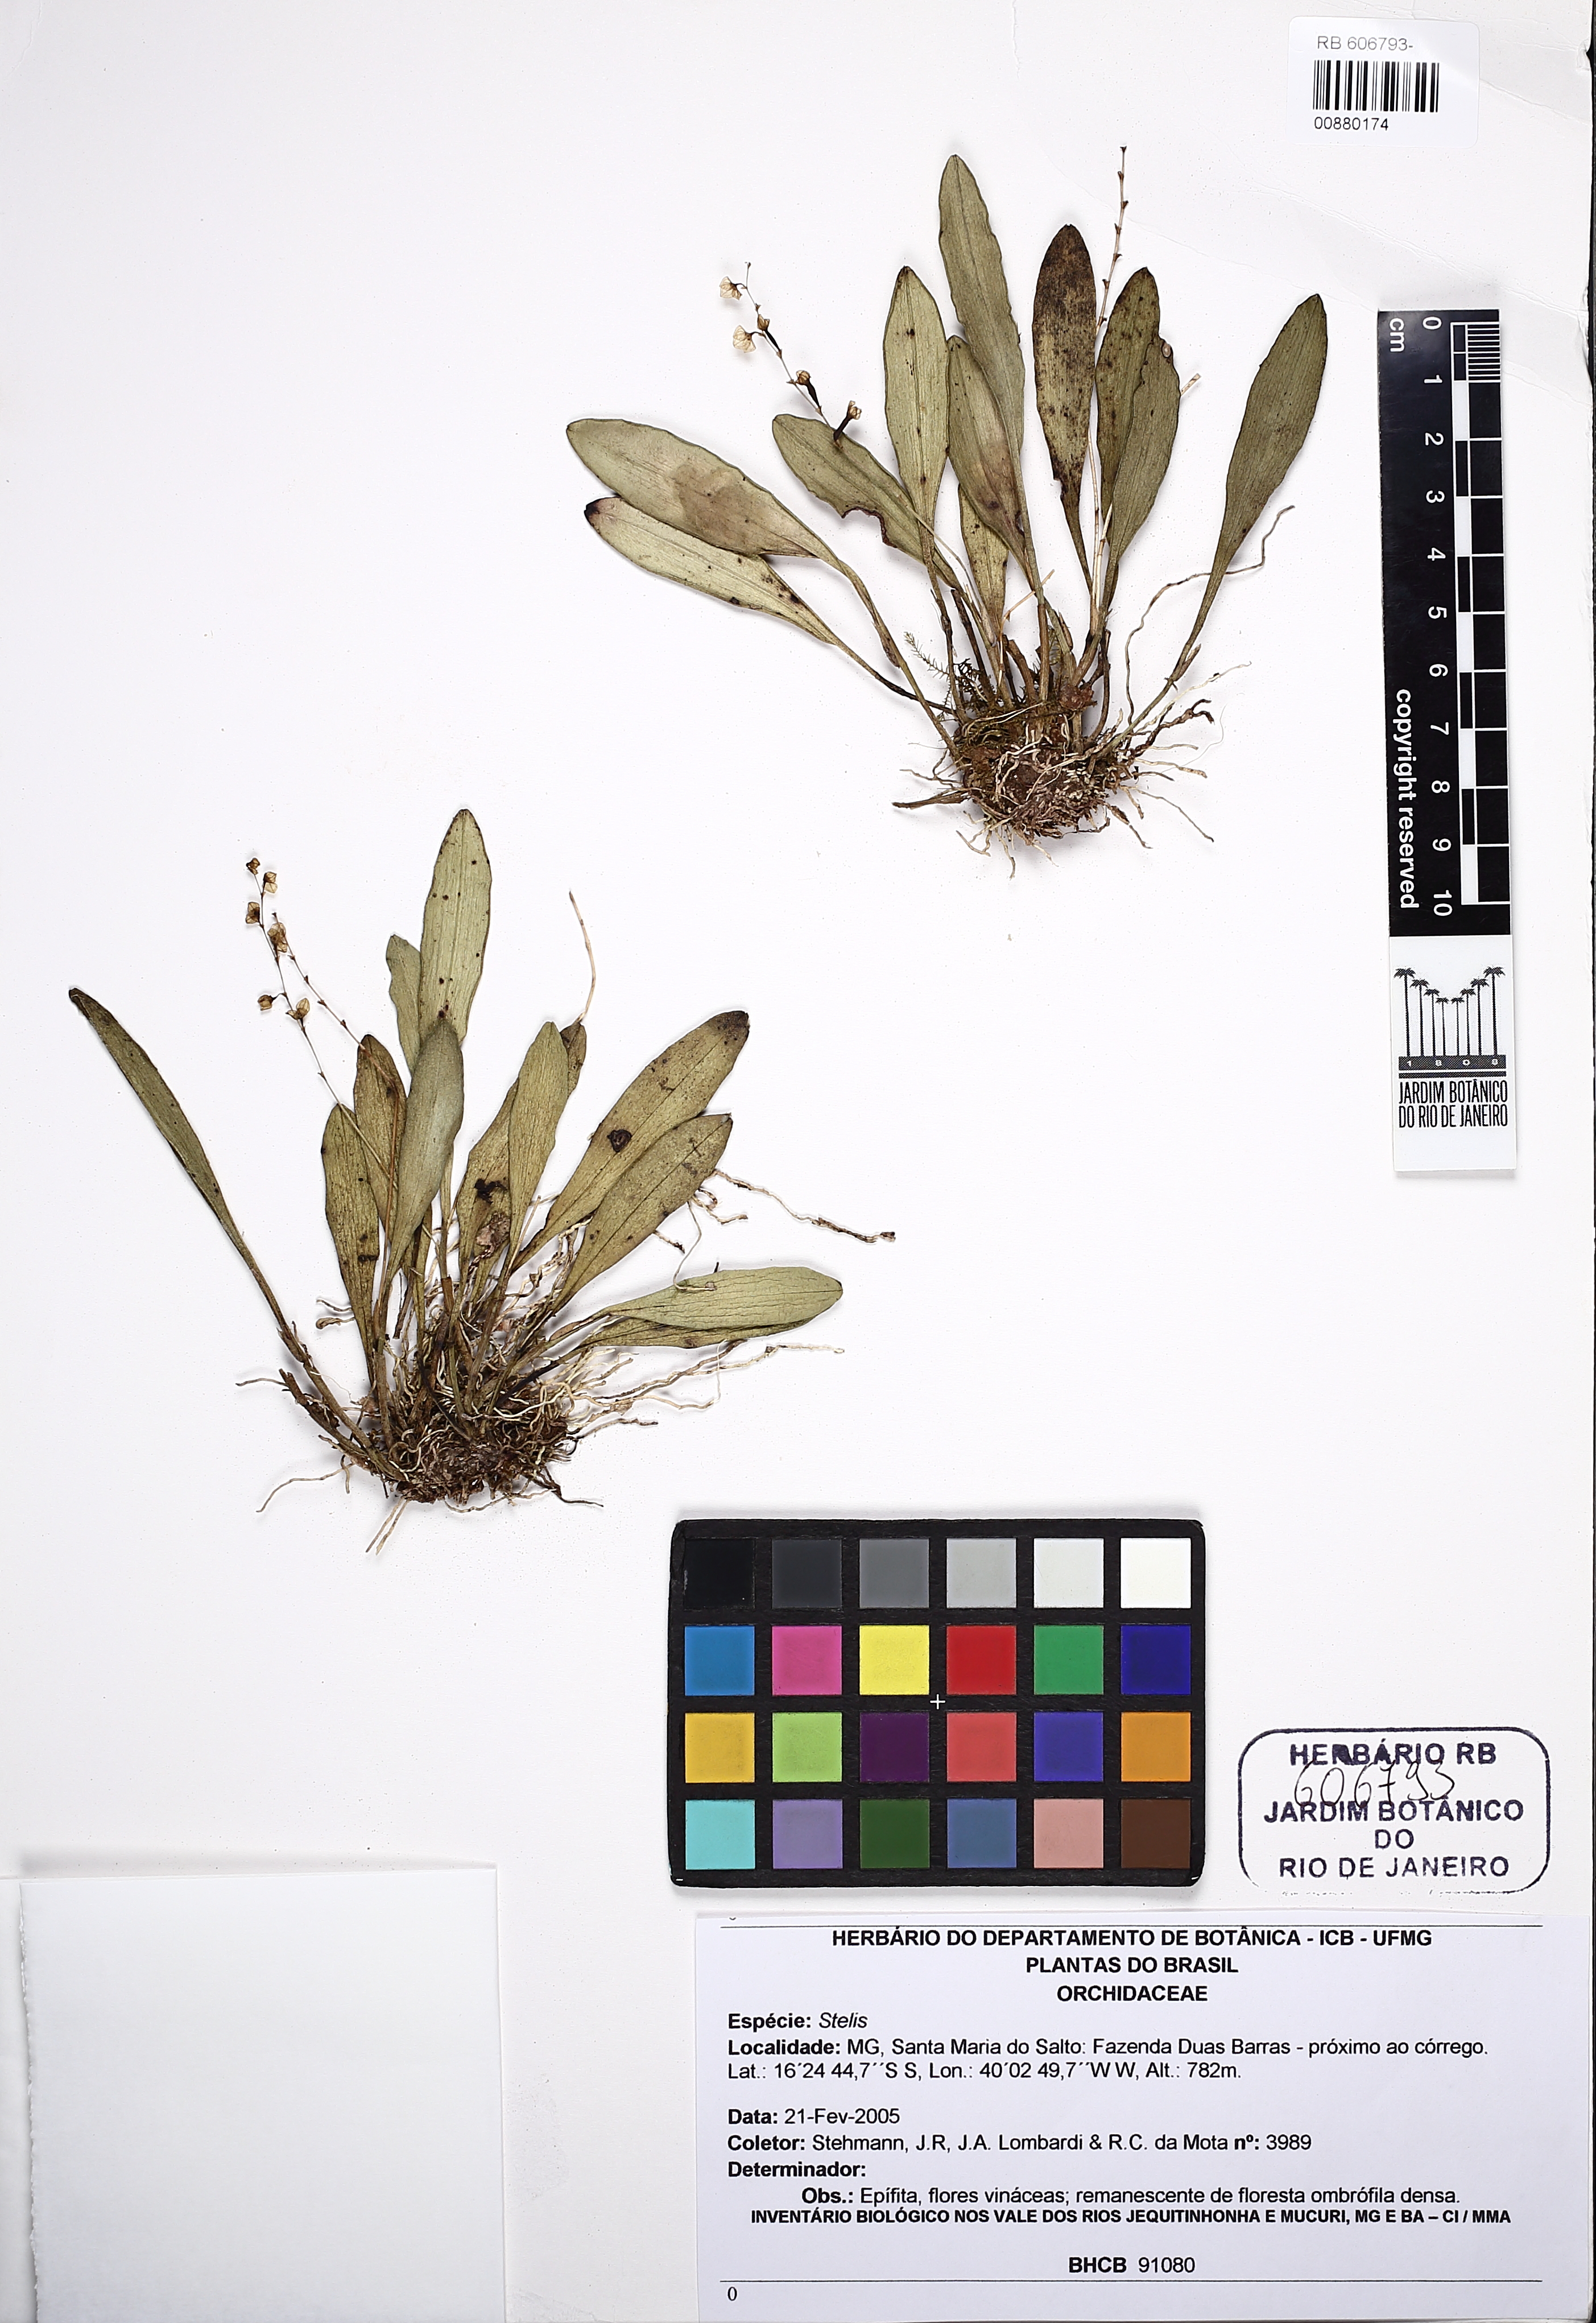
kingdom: Plantae
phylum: Tracheophyta
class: Liliopsida
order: Asparagales
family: Orchidaceae
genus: Stelis
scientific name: Stelis
